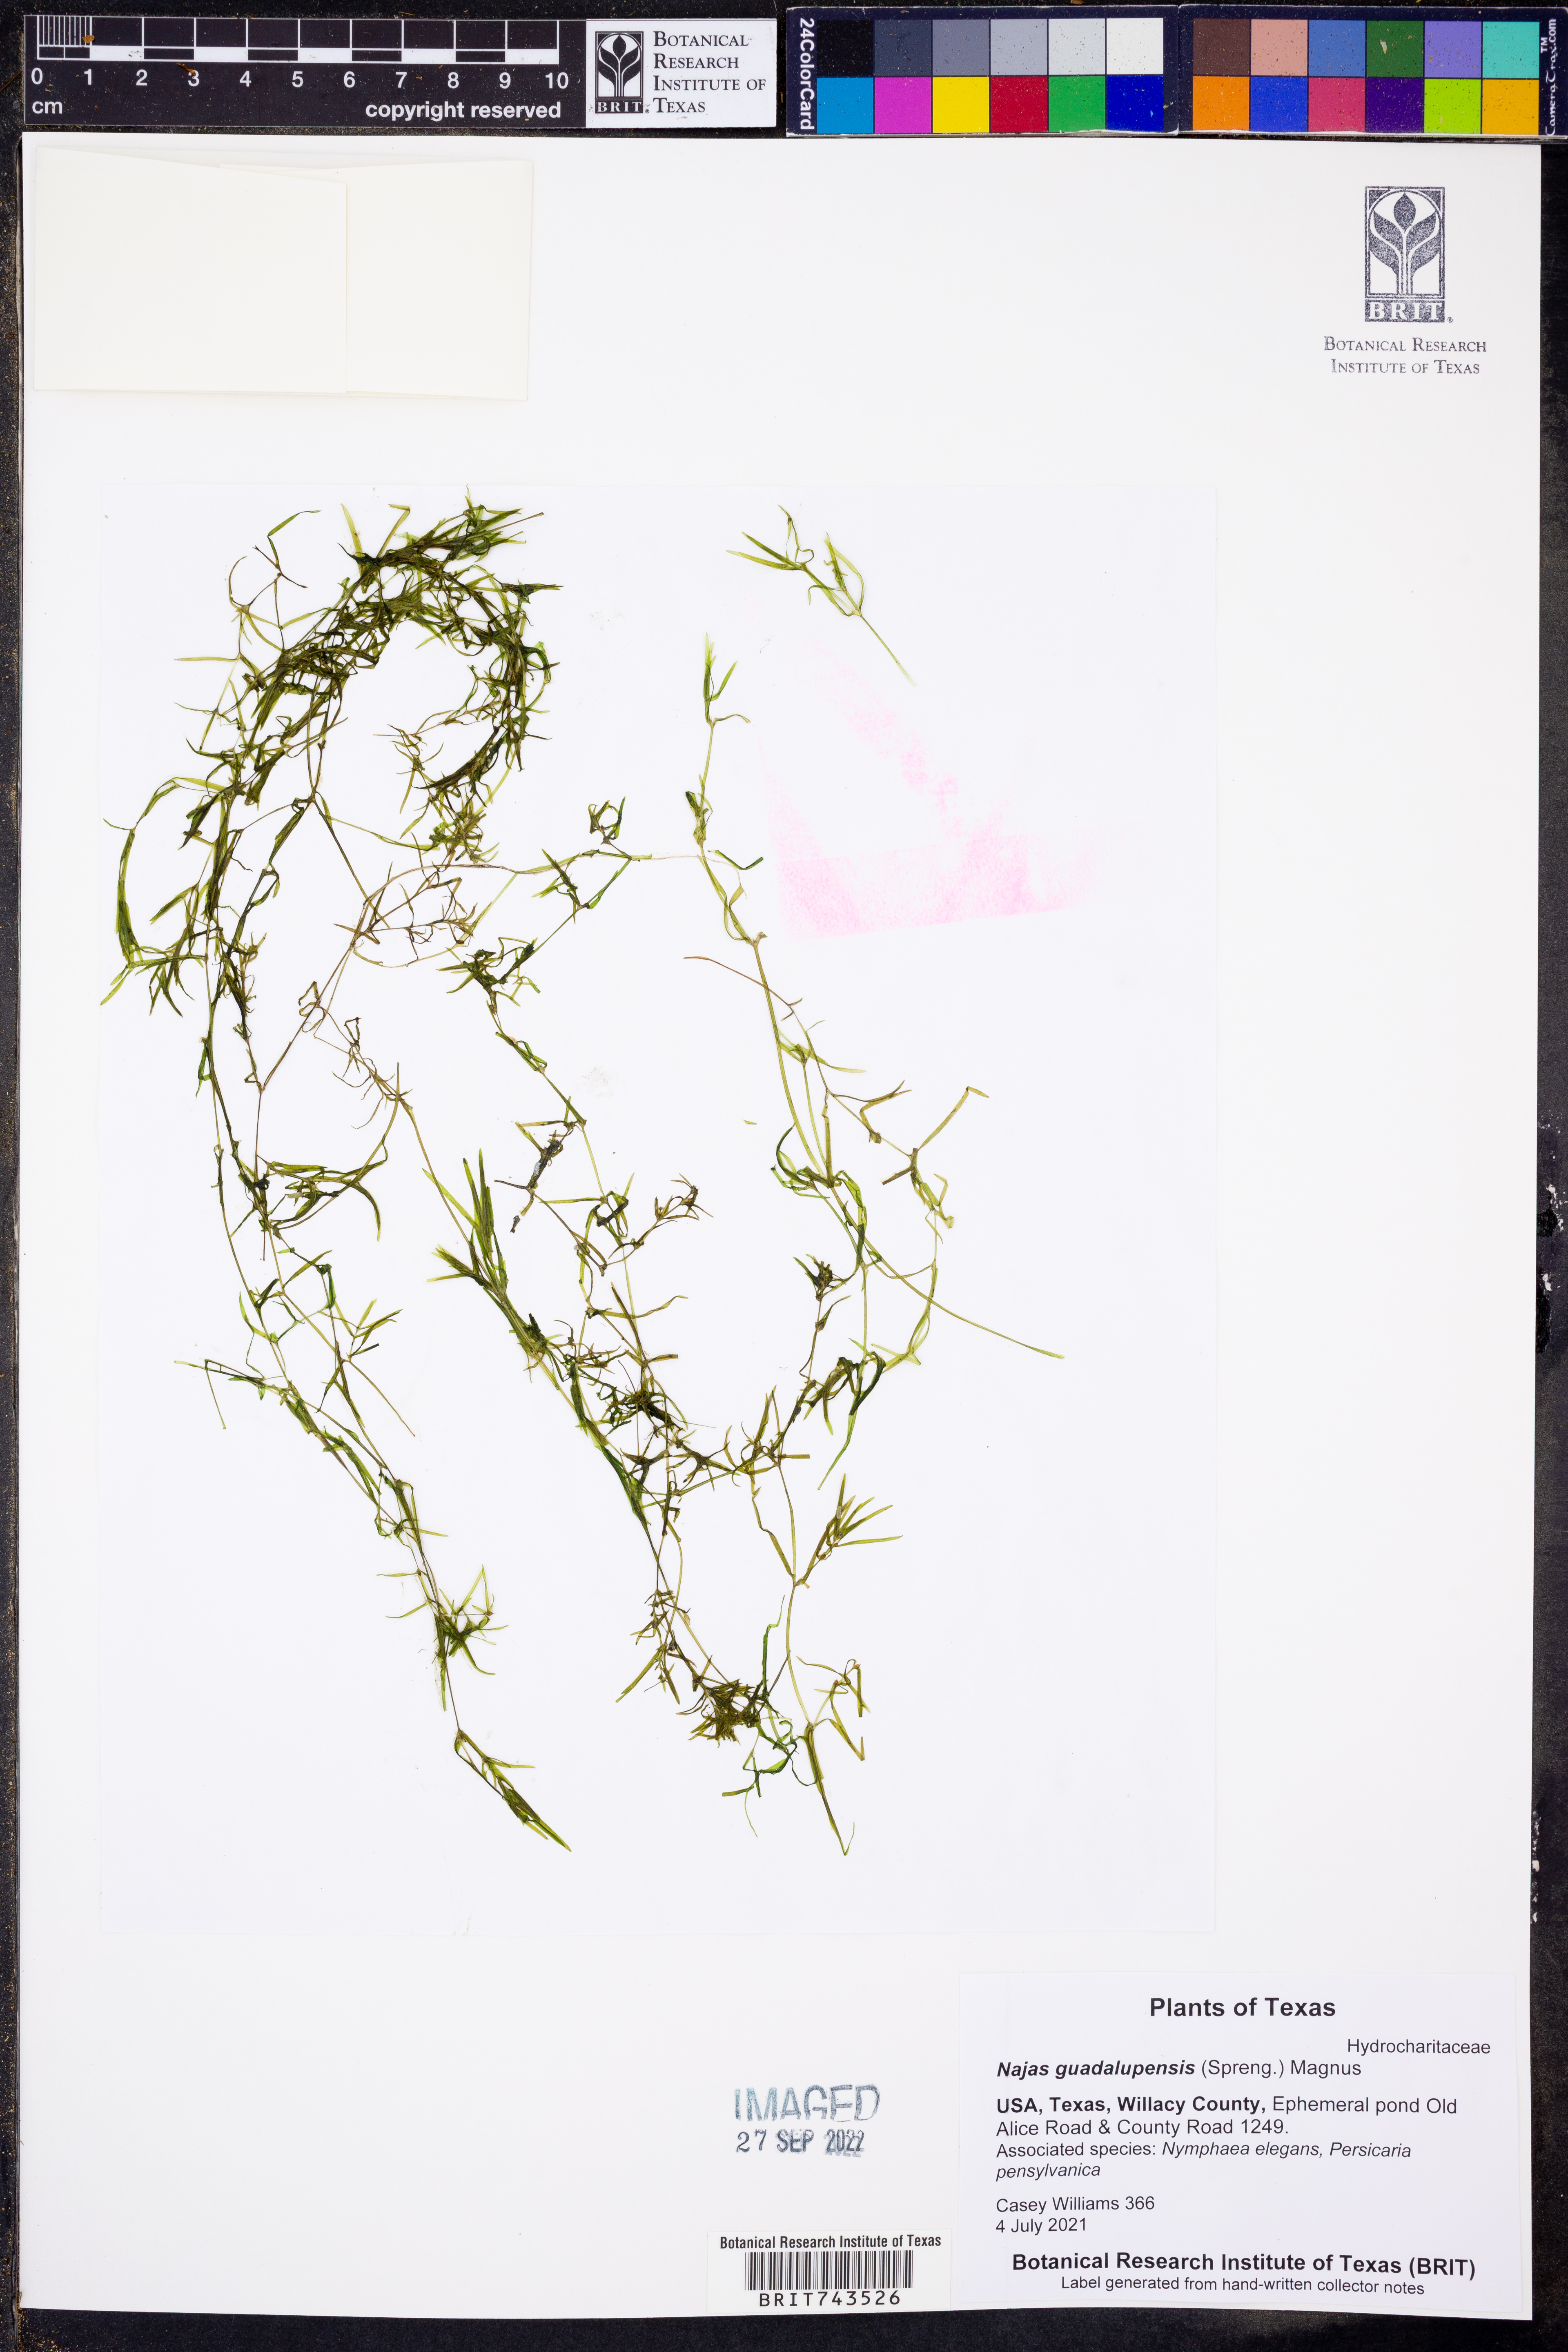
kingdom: Plantae
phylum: Tracheophyta
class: Liliopsida
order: Alismatales
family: Hydrocharitaceae
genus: Najas
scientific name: Najas guadalupensis
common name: Southern naiad
